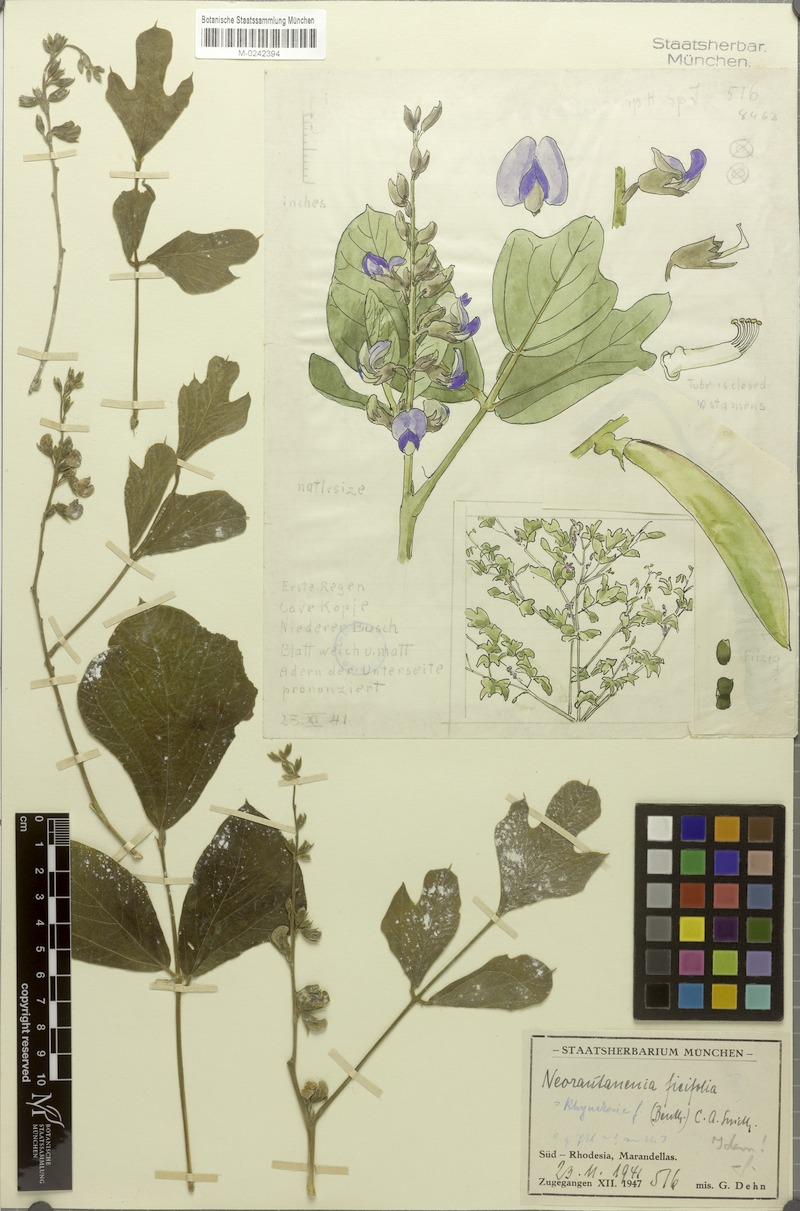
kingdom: Plantae
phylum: Tracheophyta
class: Magnoliopsida
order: Fabales
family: Fabaceae
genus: Neorautanenia
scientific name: Neorautanenia ficifolia
